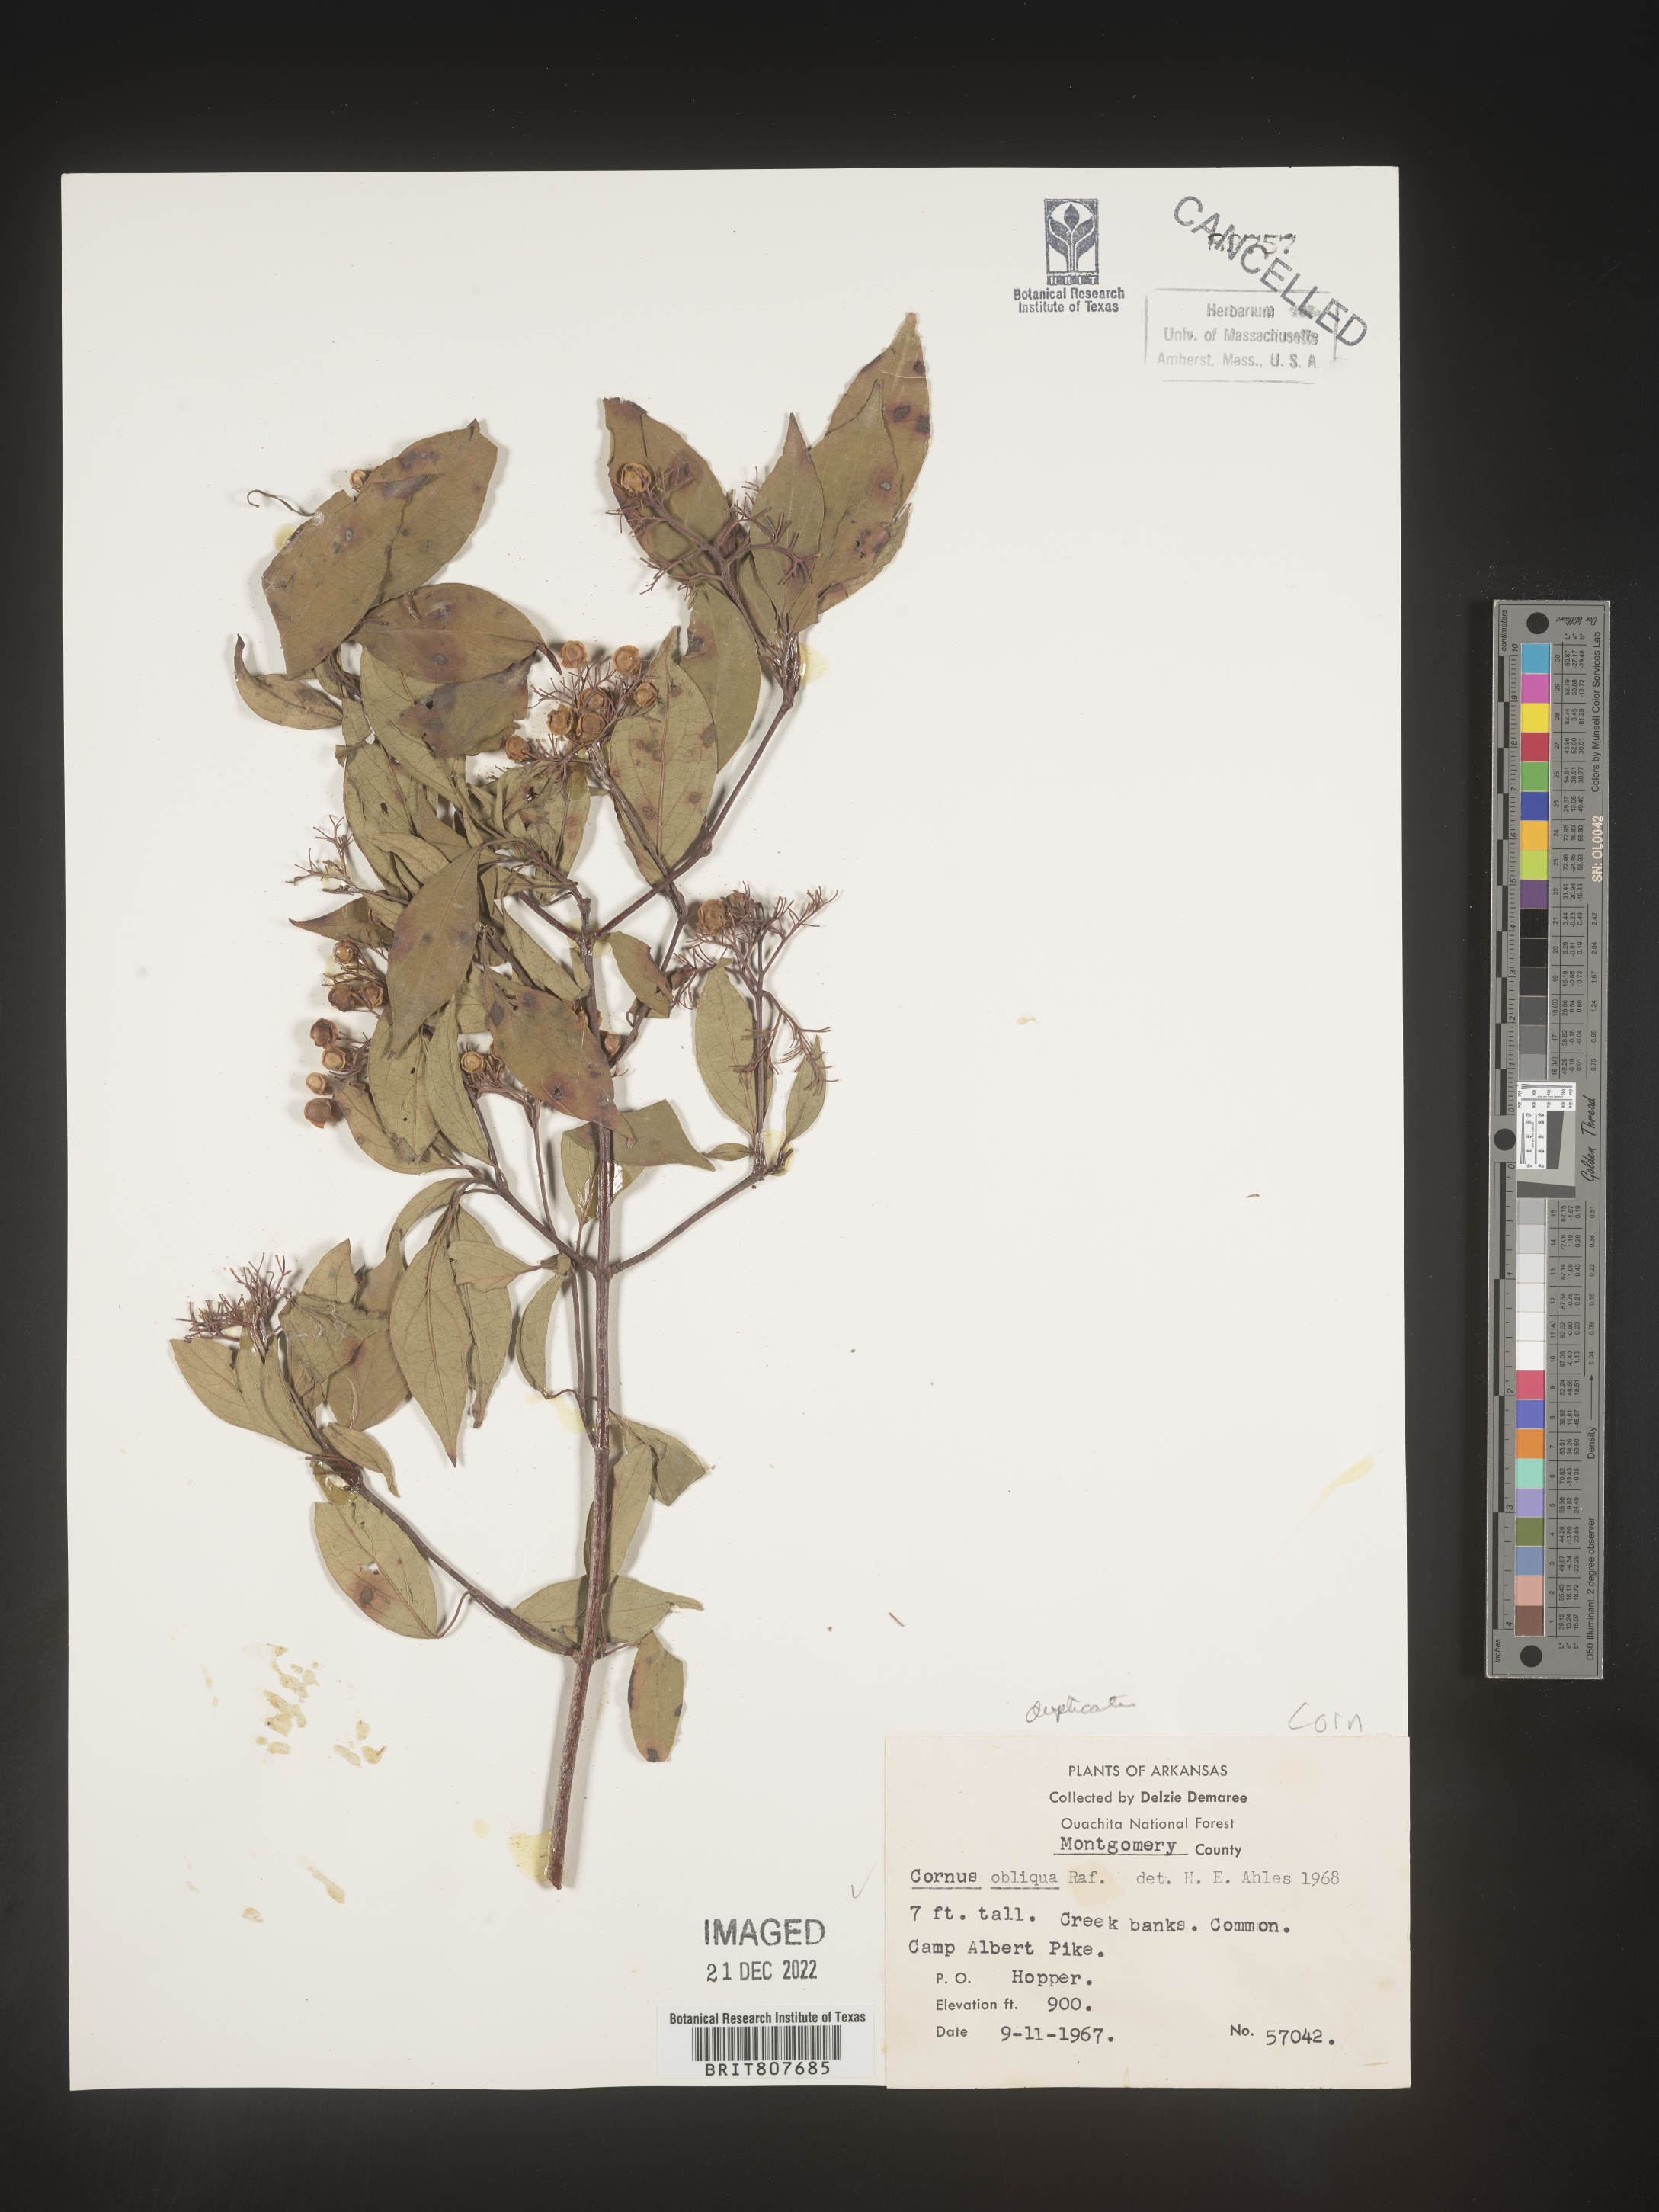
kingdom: Plantae
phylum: Tracheophyta
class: Magnoliopsida
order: Cornales
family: Cornaceae
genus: Cornus
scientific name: Cornus obliqua
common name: Pale dogwood
